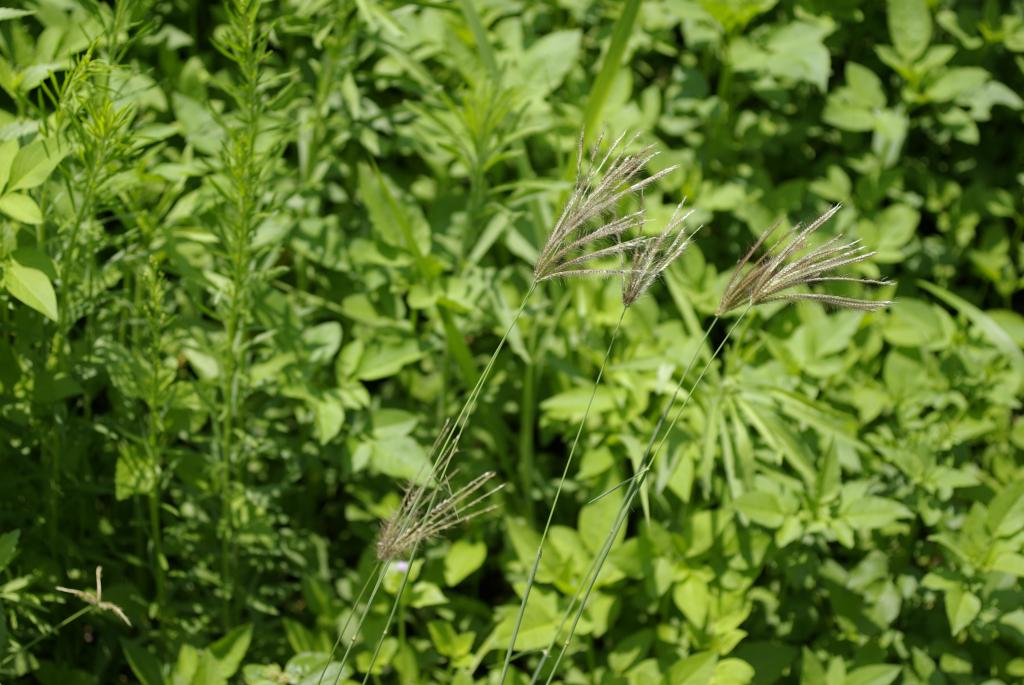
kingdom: Plantae
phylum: Tracheophyta
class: Liliopsida
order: Poales
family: Poaceae
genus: Chloris
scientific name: Chloris barbata
